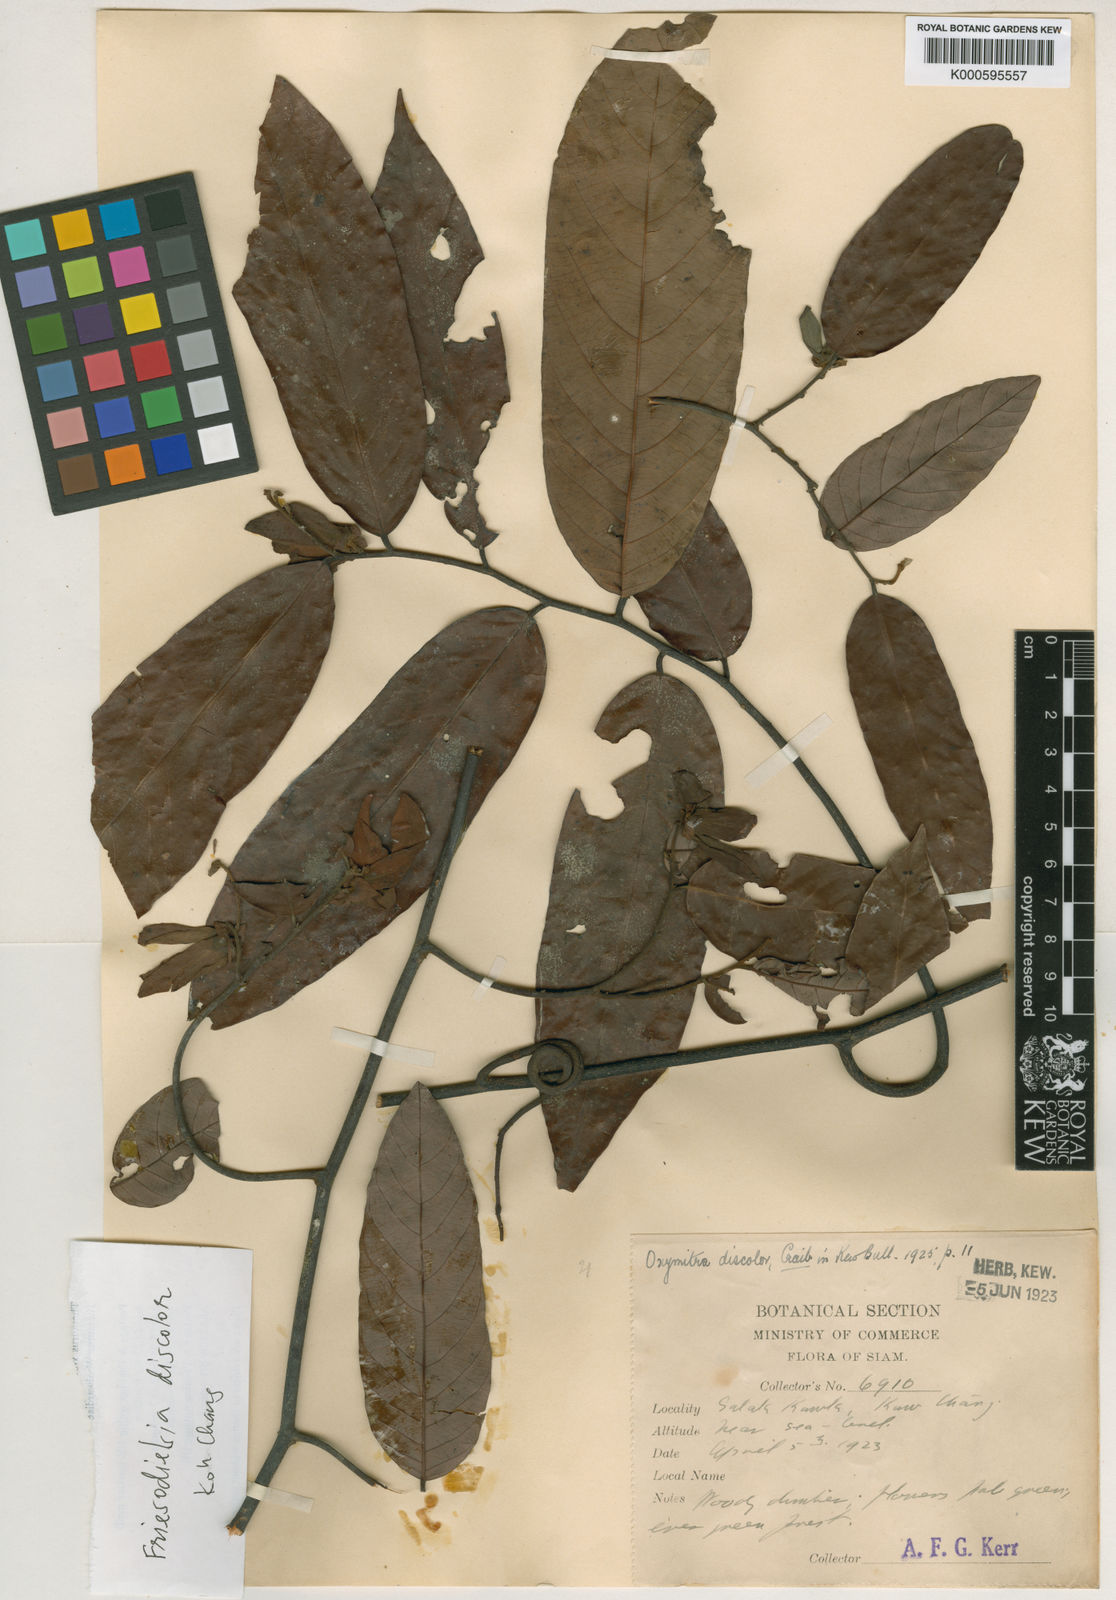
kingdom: Plantae
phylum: Tracheophyta
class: Magnoliopsida
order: Magnoliales
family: Annonaceae
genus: Friesodielsia
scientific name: Friesodielsia discolor
